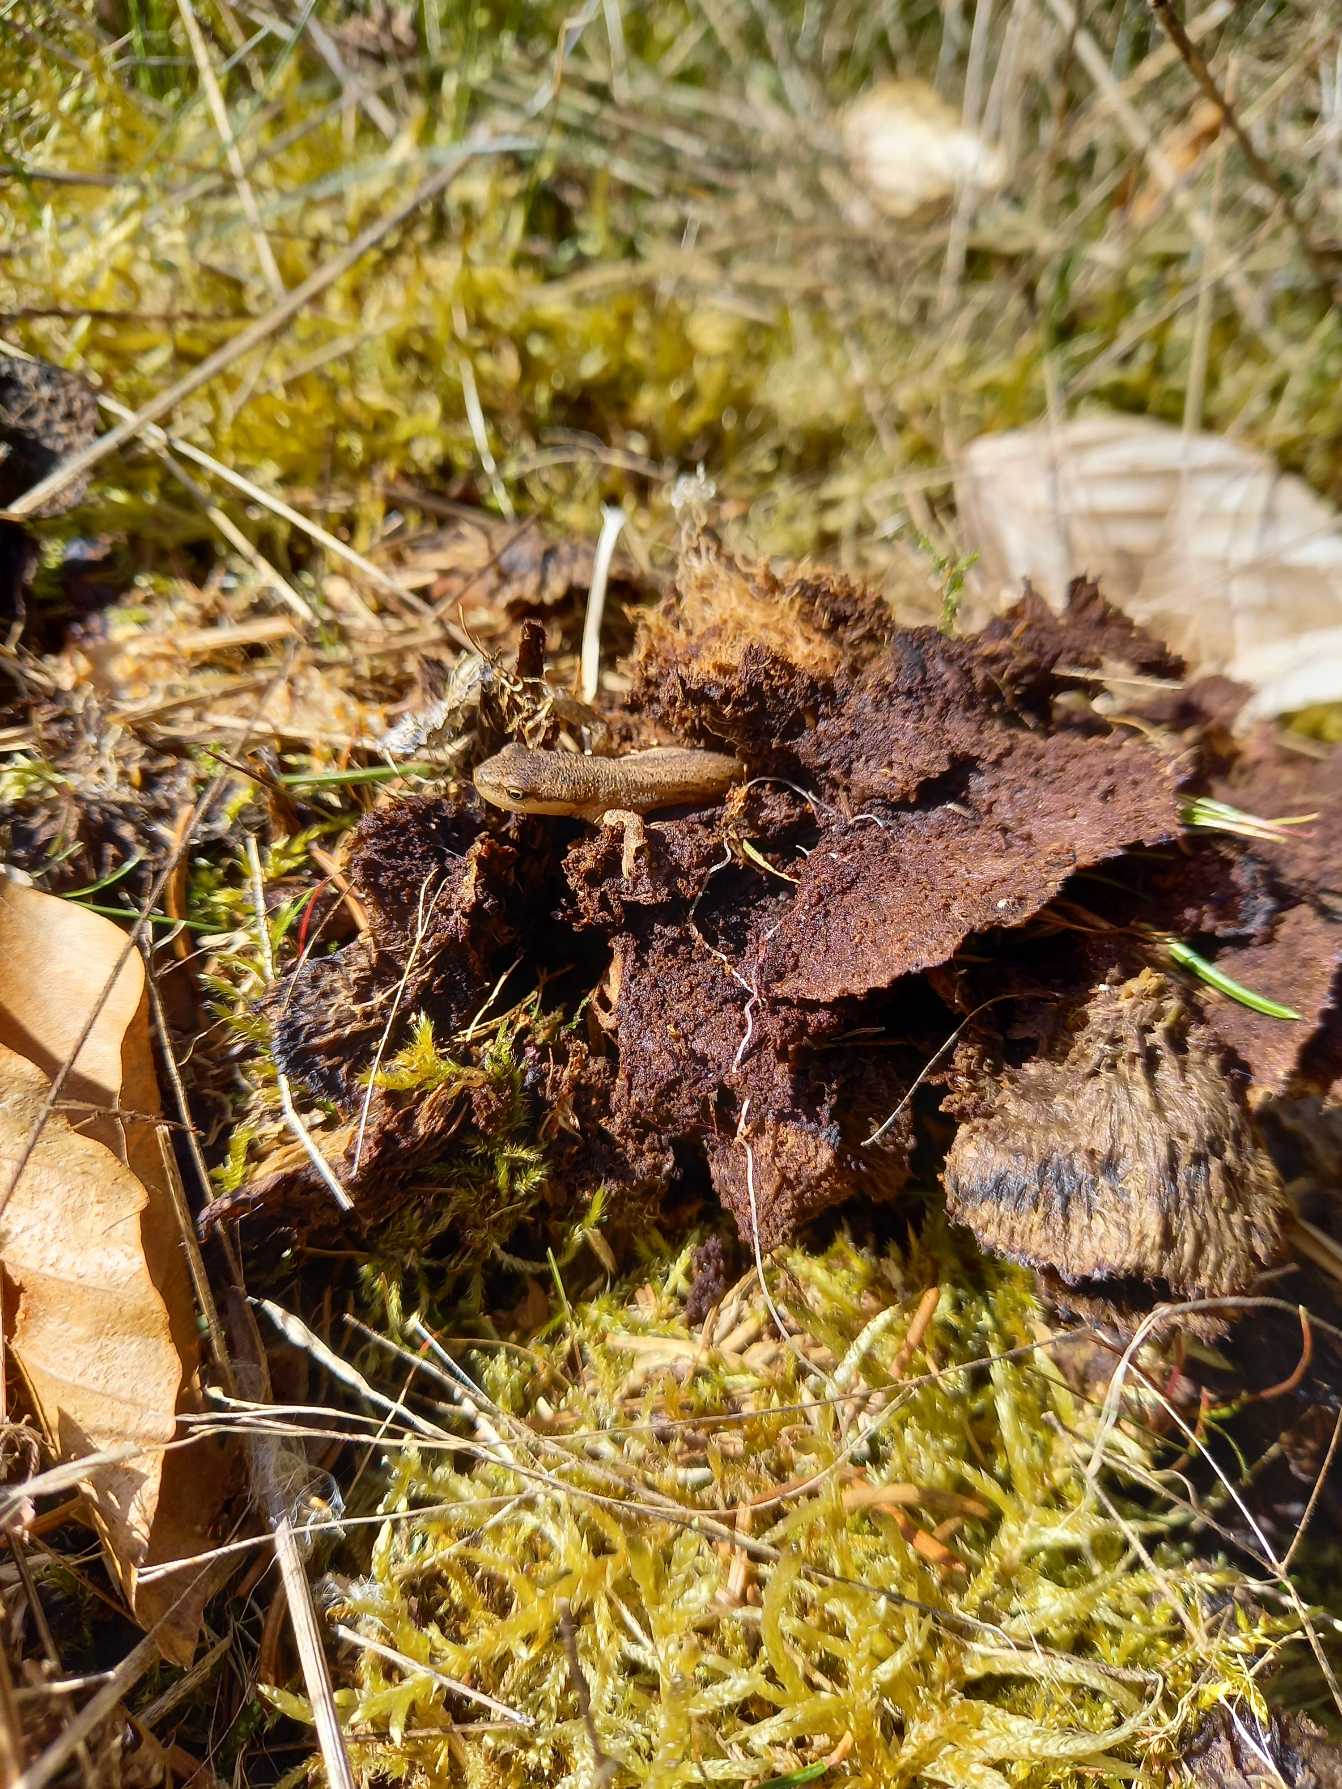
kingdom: Animalia
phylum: Chordata
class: Amphibia
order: Caudata
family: Salamandridae
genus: Lissotriton
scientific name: Lissotriton vulgaris
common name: Lille vandsalamander
